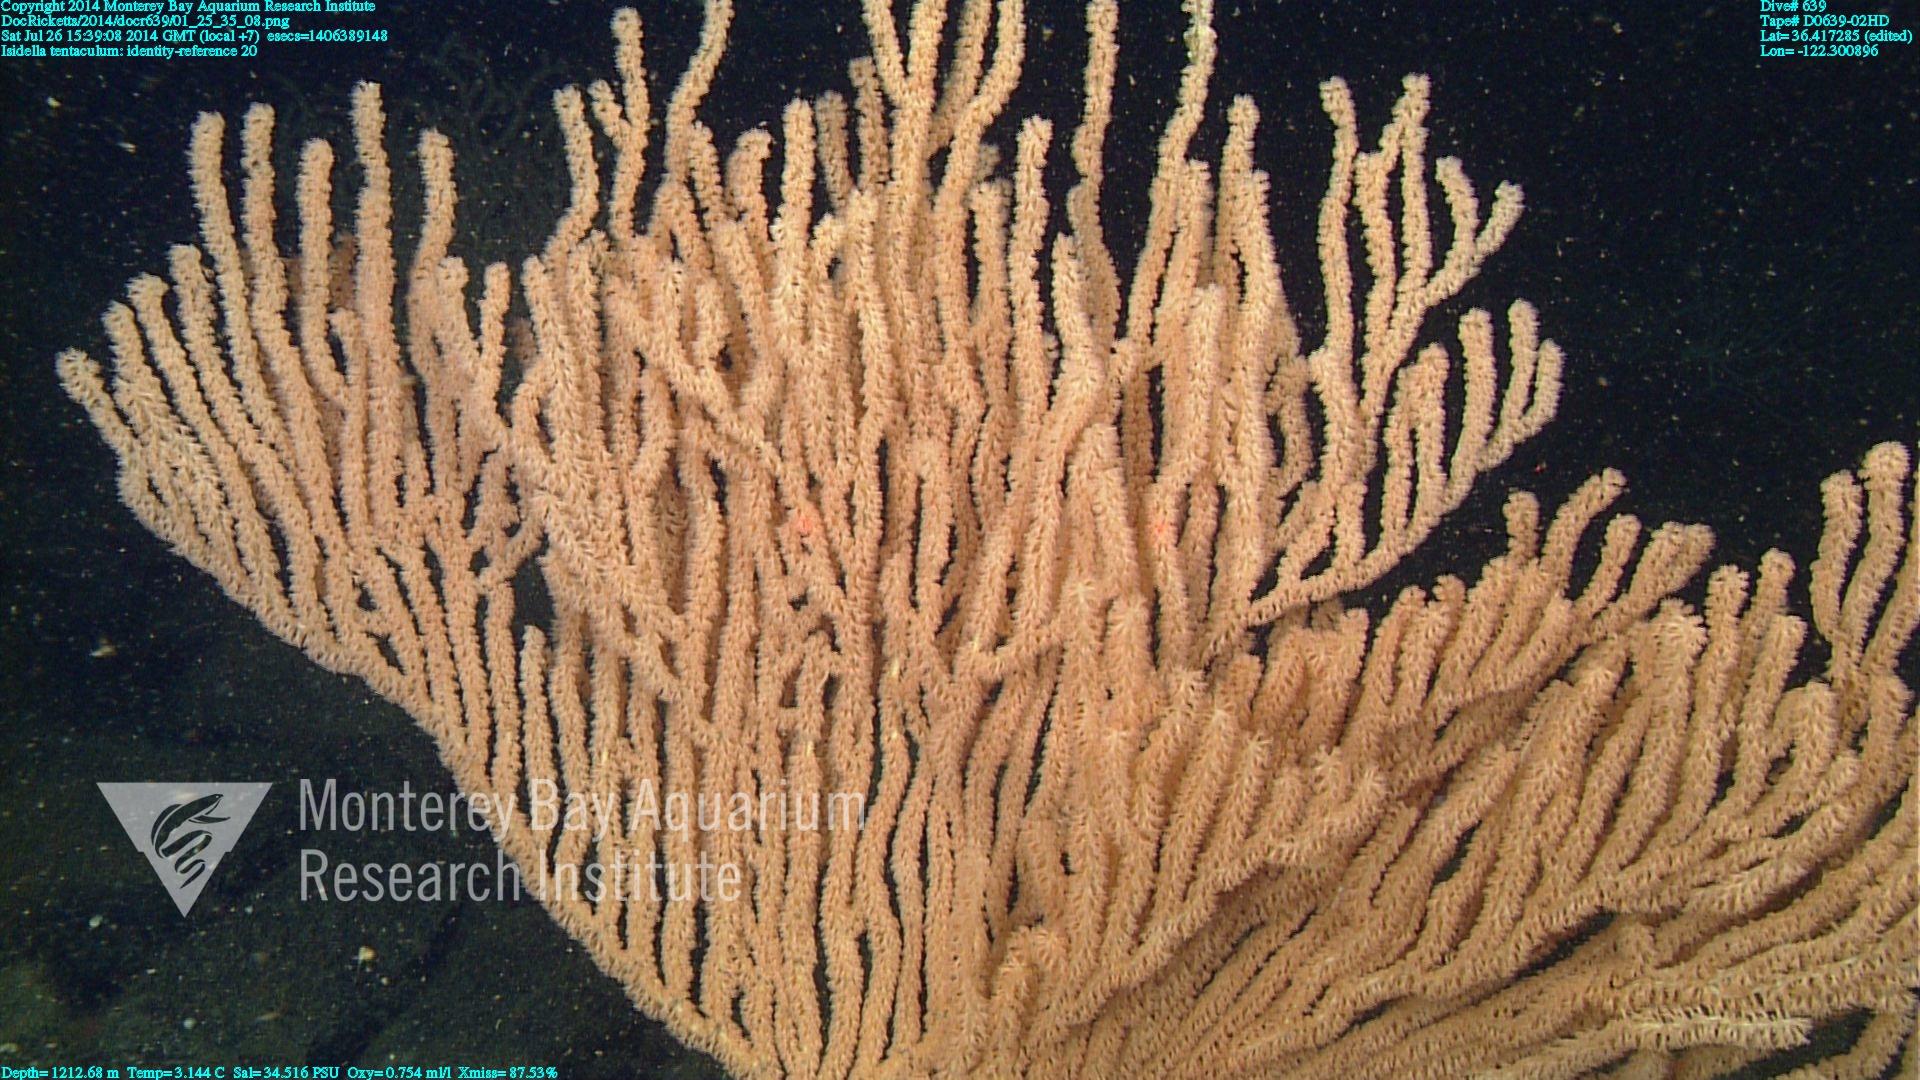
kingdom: Animalia
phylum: Cnidaria
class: Anthozoa
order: Scleralcyonacea
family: Keratoisididae
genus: Isidella
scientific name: Isidella tentaculum
